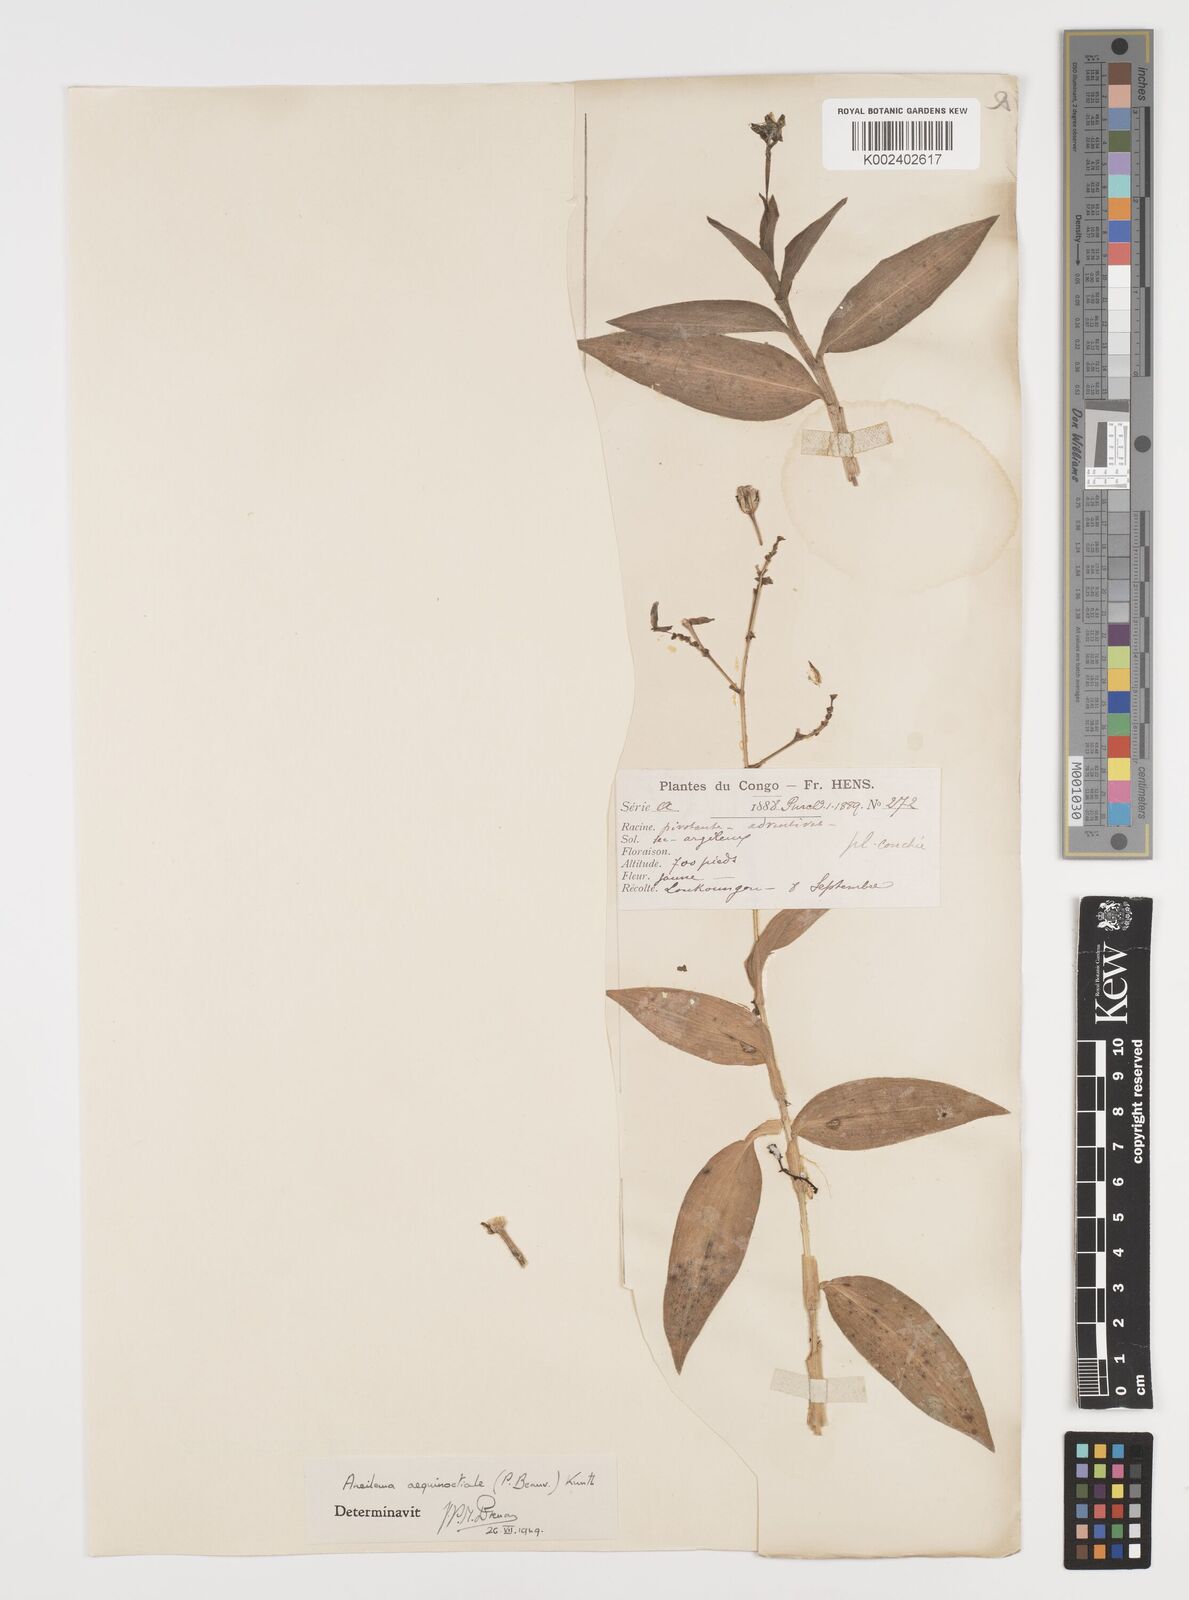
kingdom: Plantae
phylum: Tracheophyta
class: Liliopsida
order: Commelinales
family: Commelinaceae
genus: Aneilema
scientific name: Aneilema aequinoctiale
